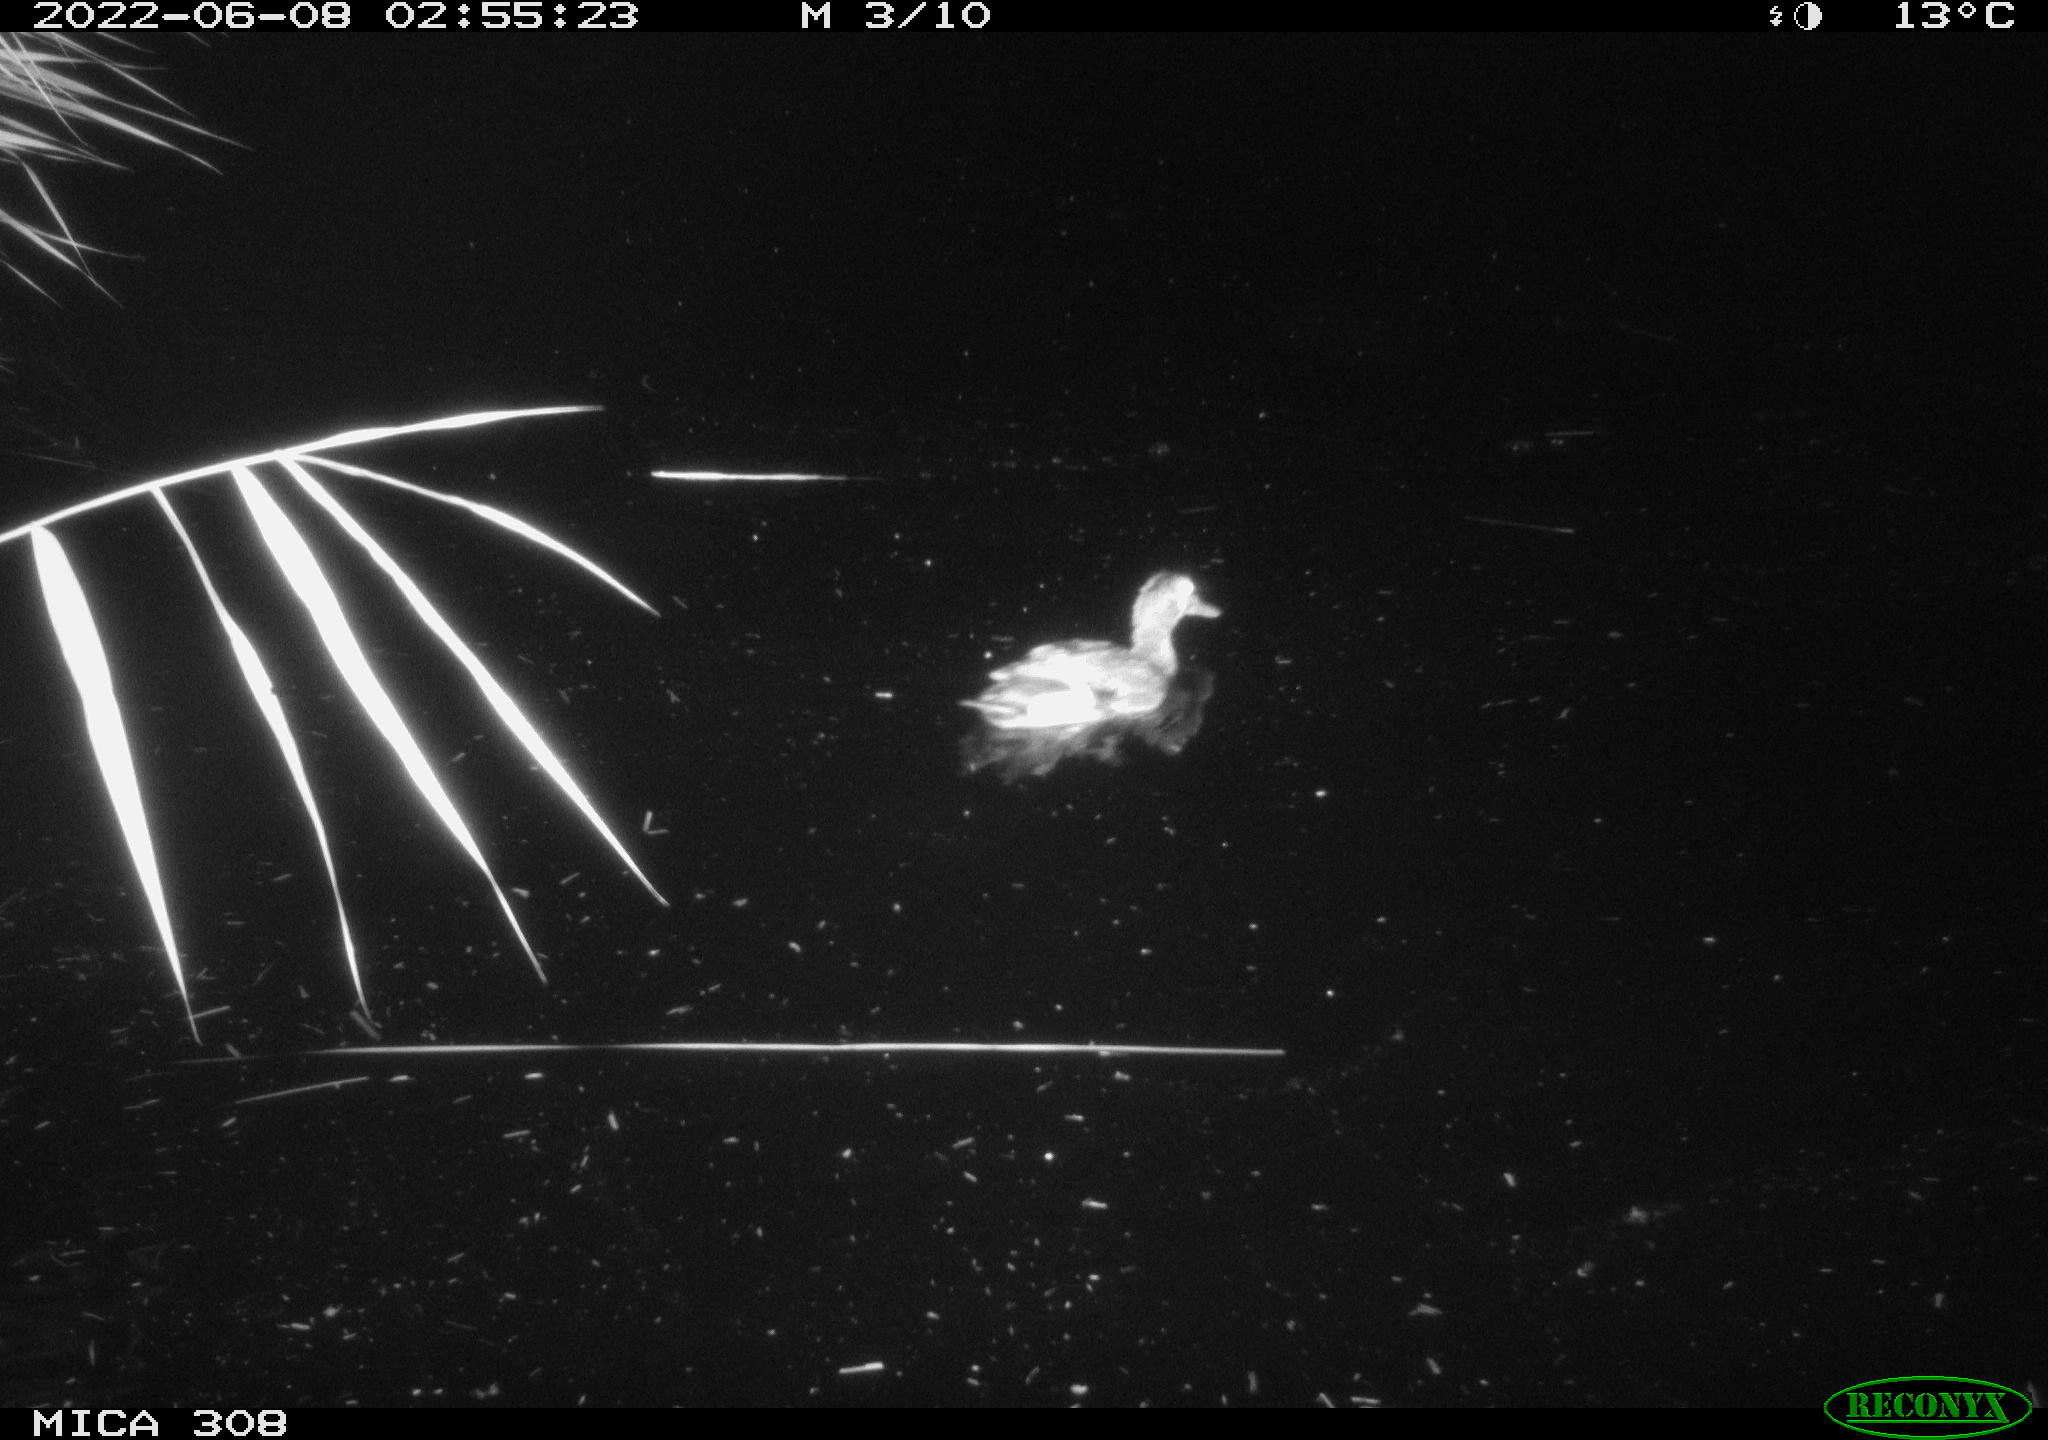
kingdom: Animalia
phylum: Chordata
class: Aves
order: Anseriformes
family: Anatidae
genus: Anas
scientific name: Anas platyrhynchos
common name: Mallard
